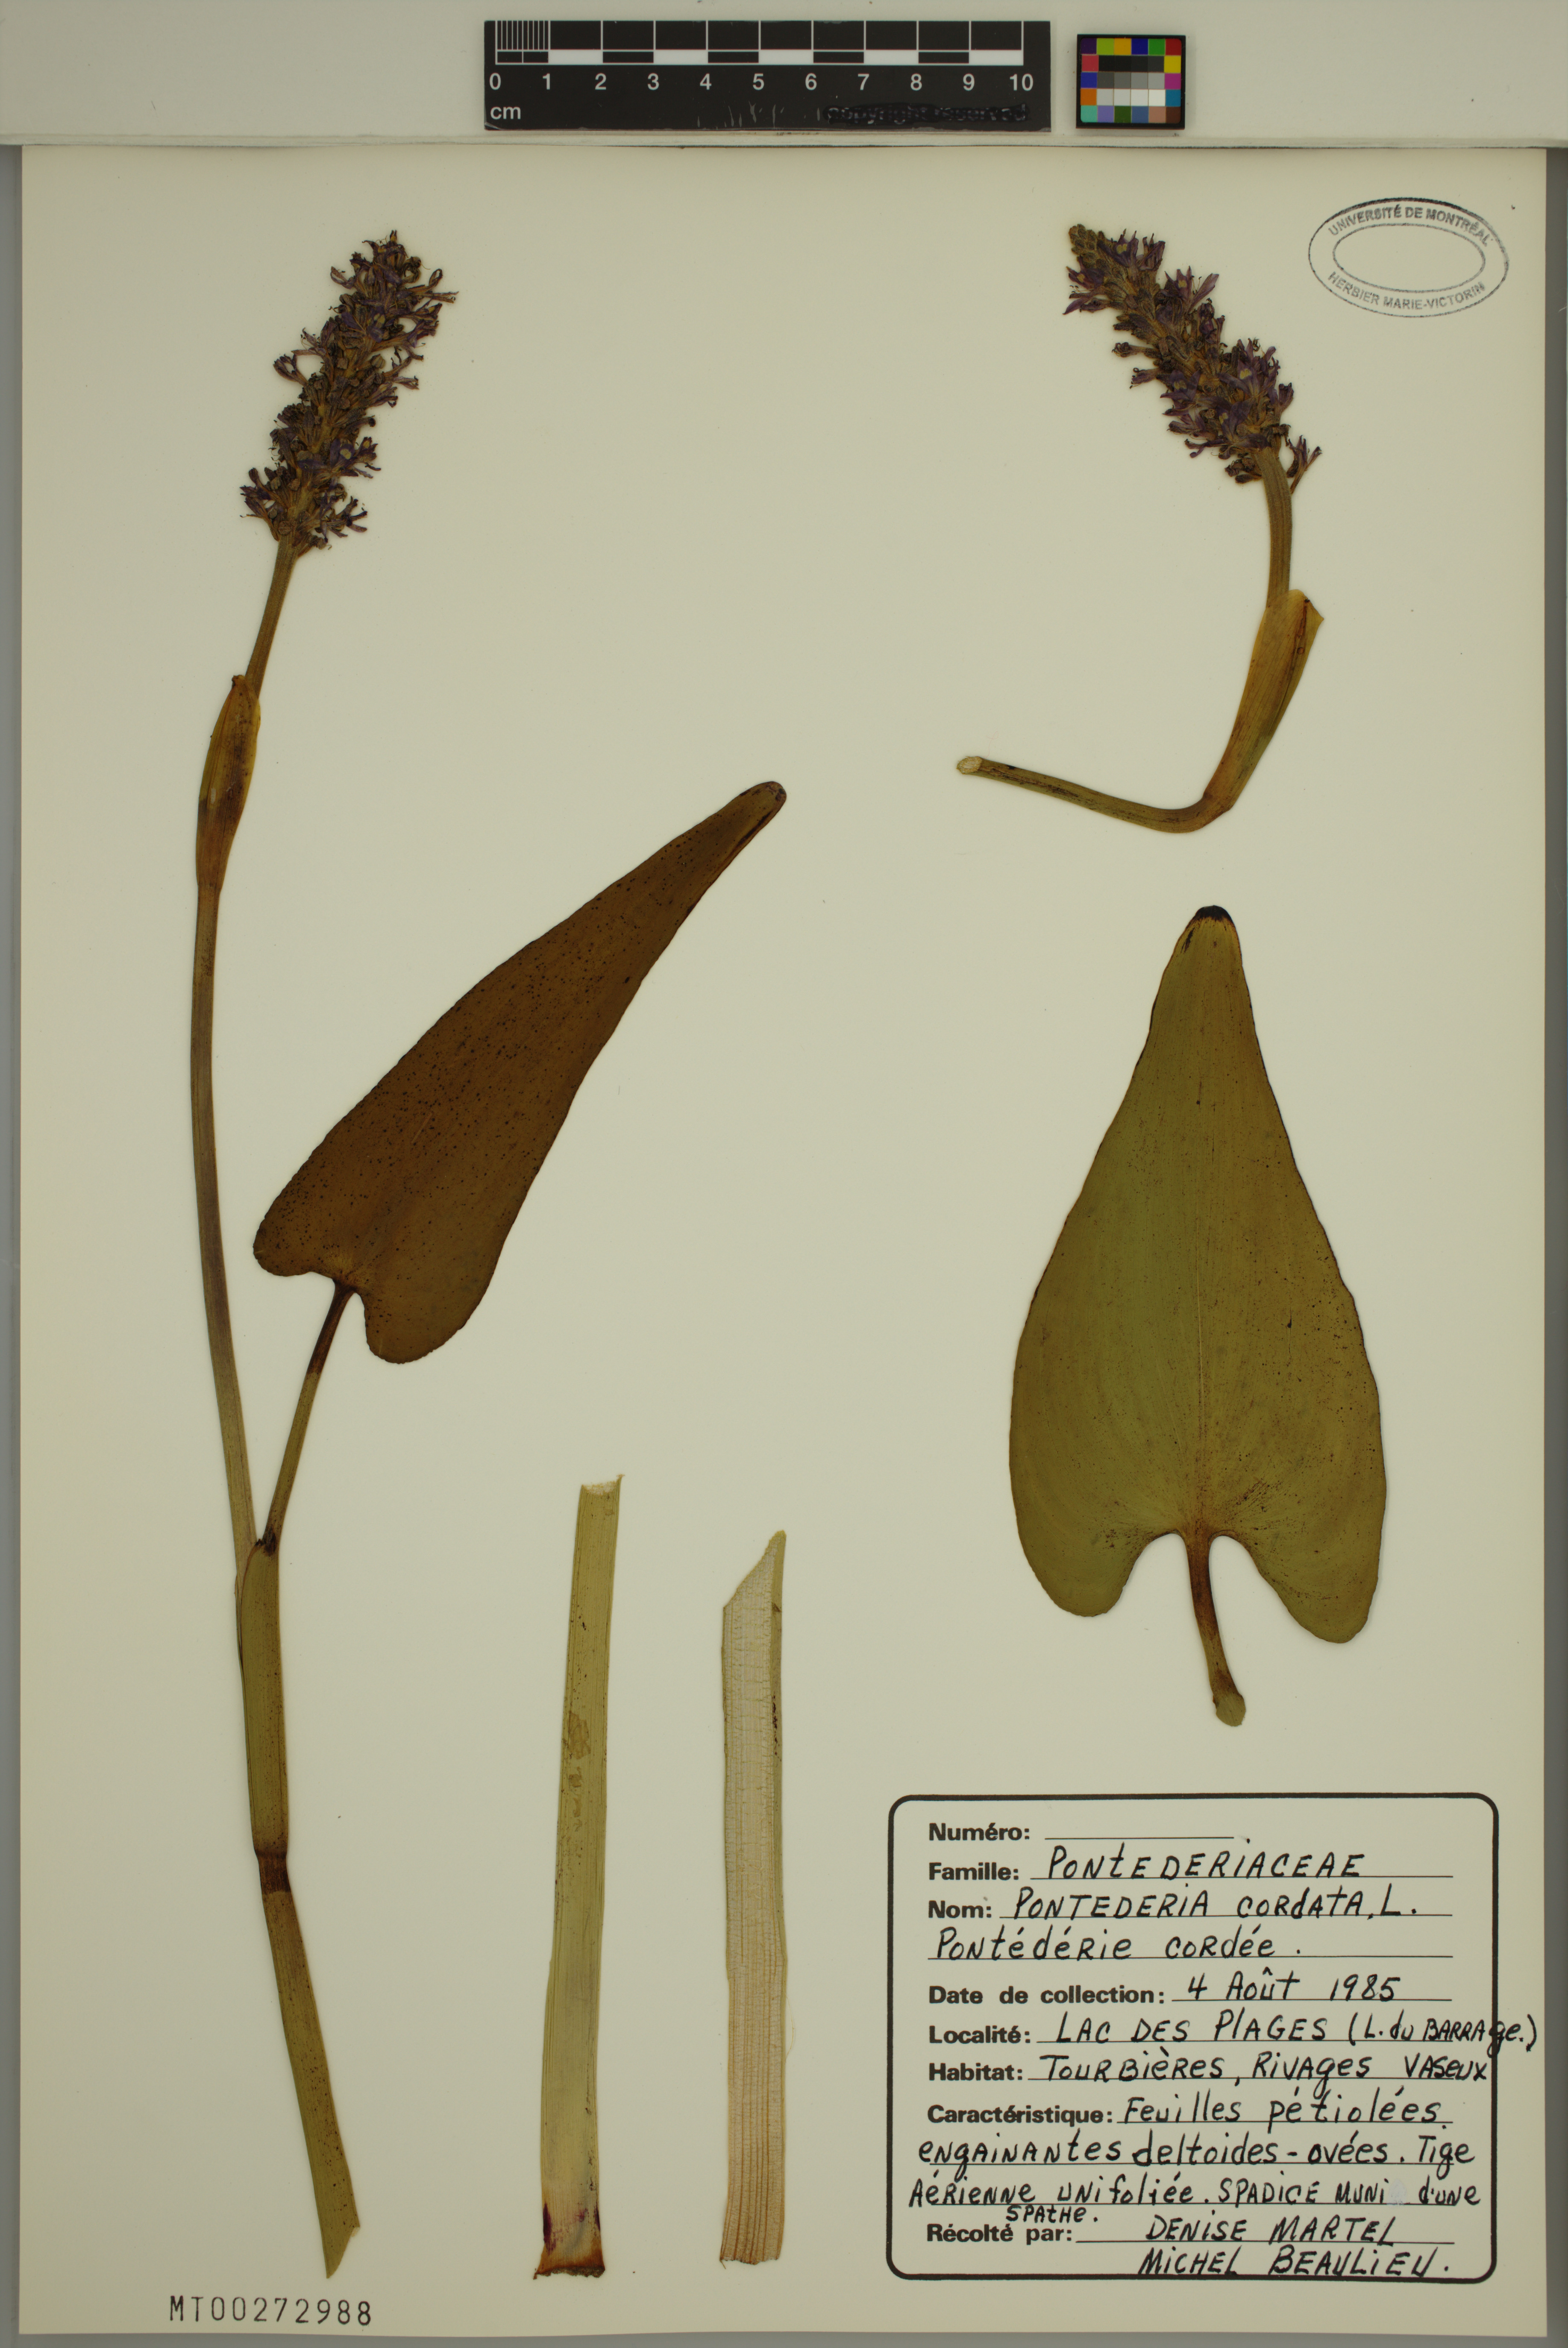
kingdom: Plantae
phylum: Tracheophyta
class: Liliopsida
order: Commelinales
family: Pontederiaceae
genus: Pontederia
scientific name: Pontederia cordata
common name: Pickerelweed
